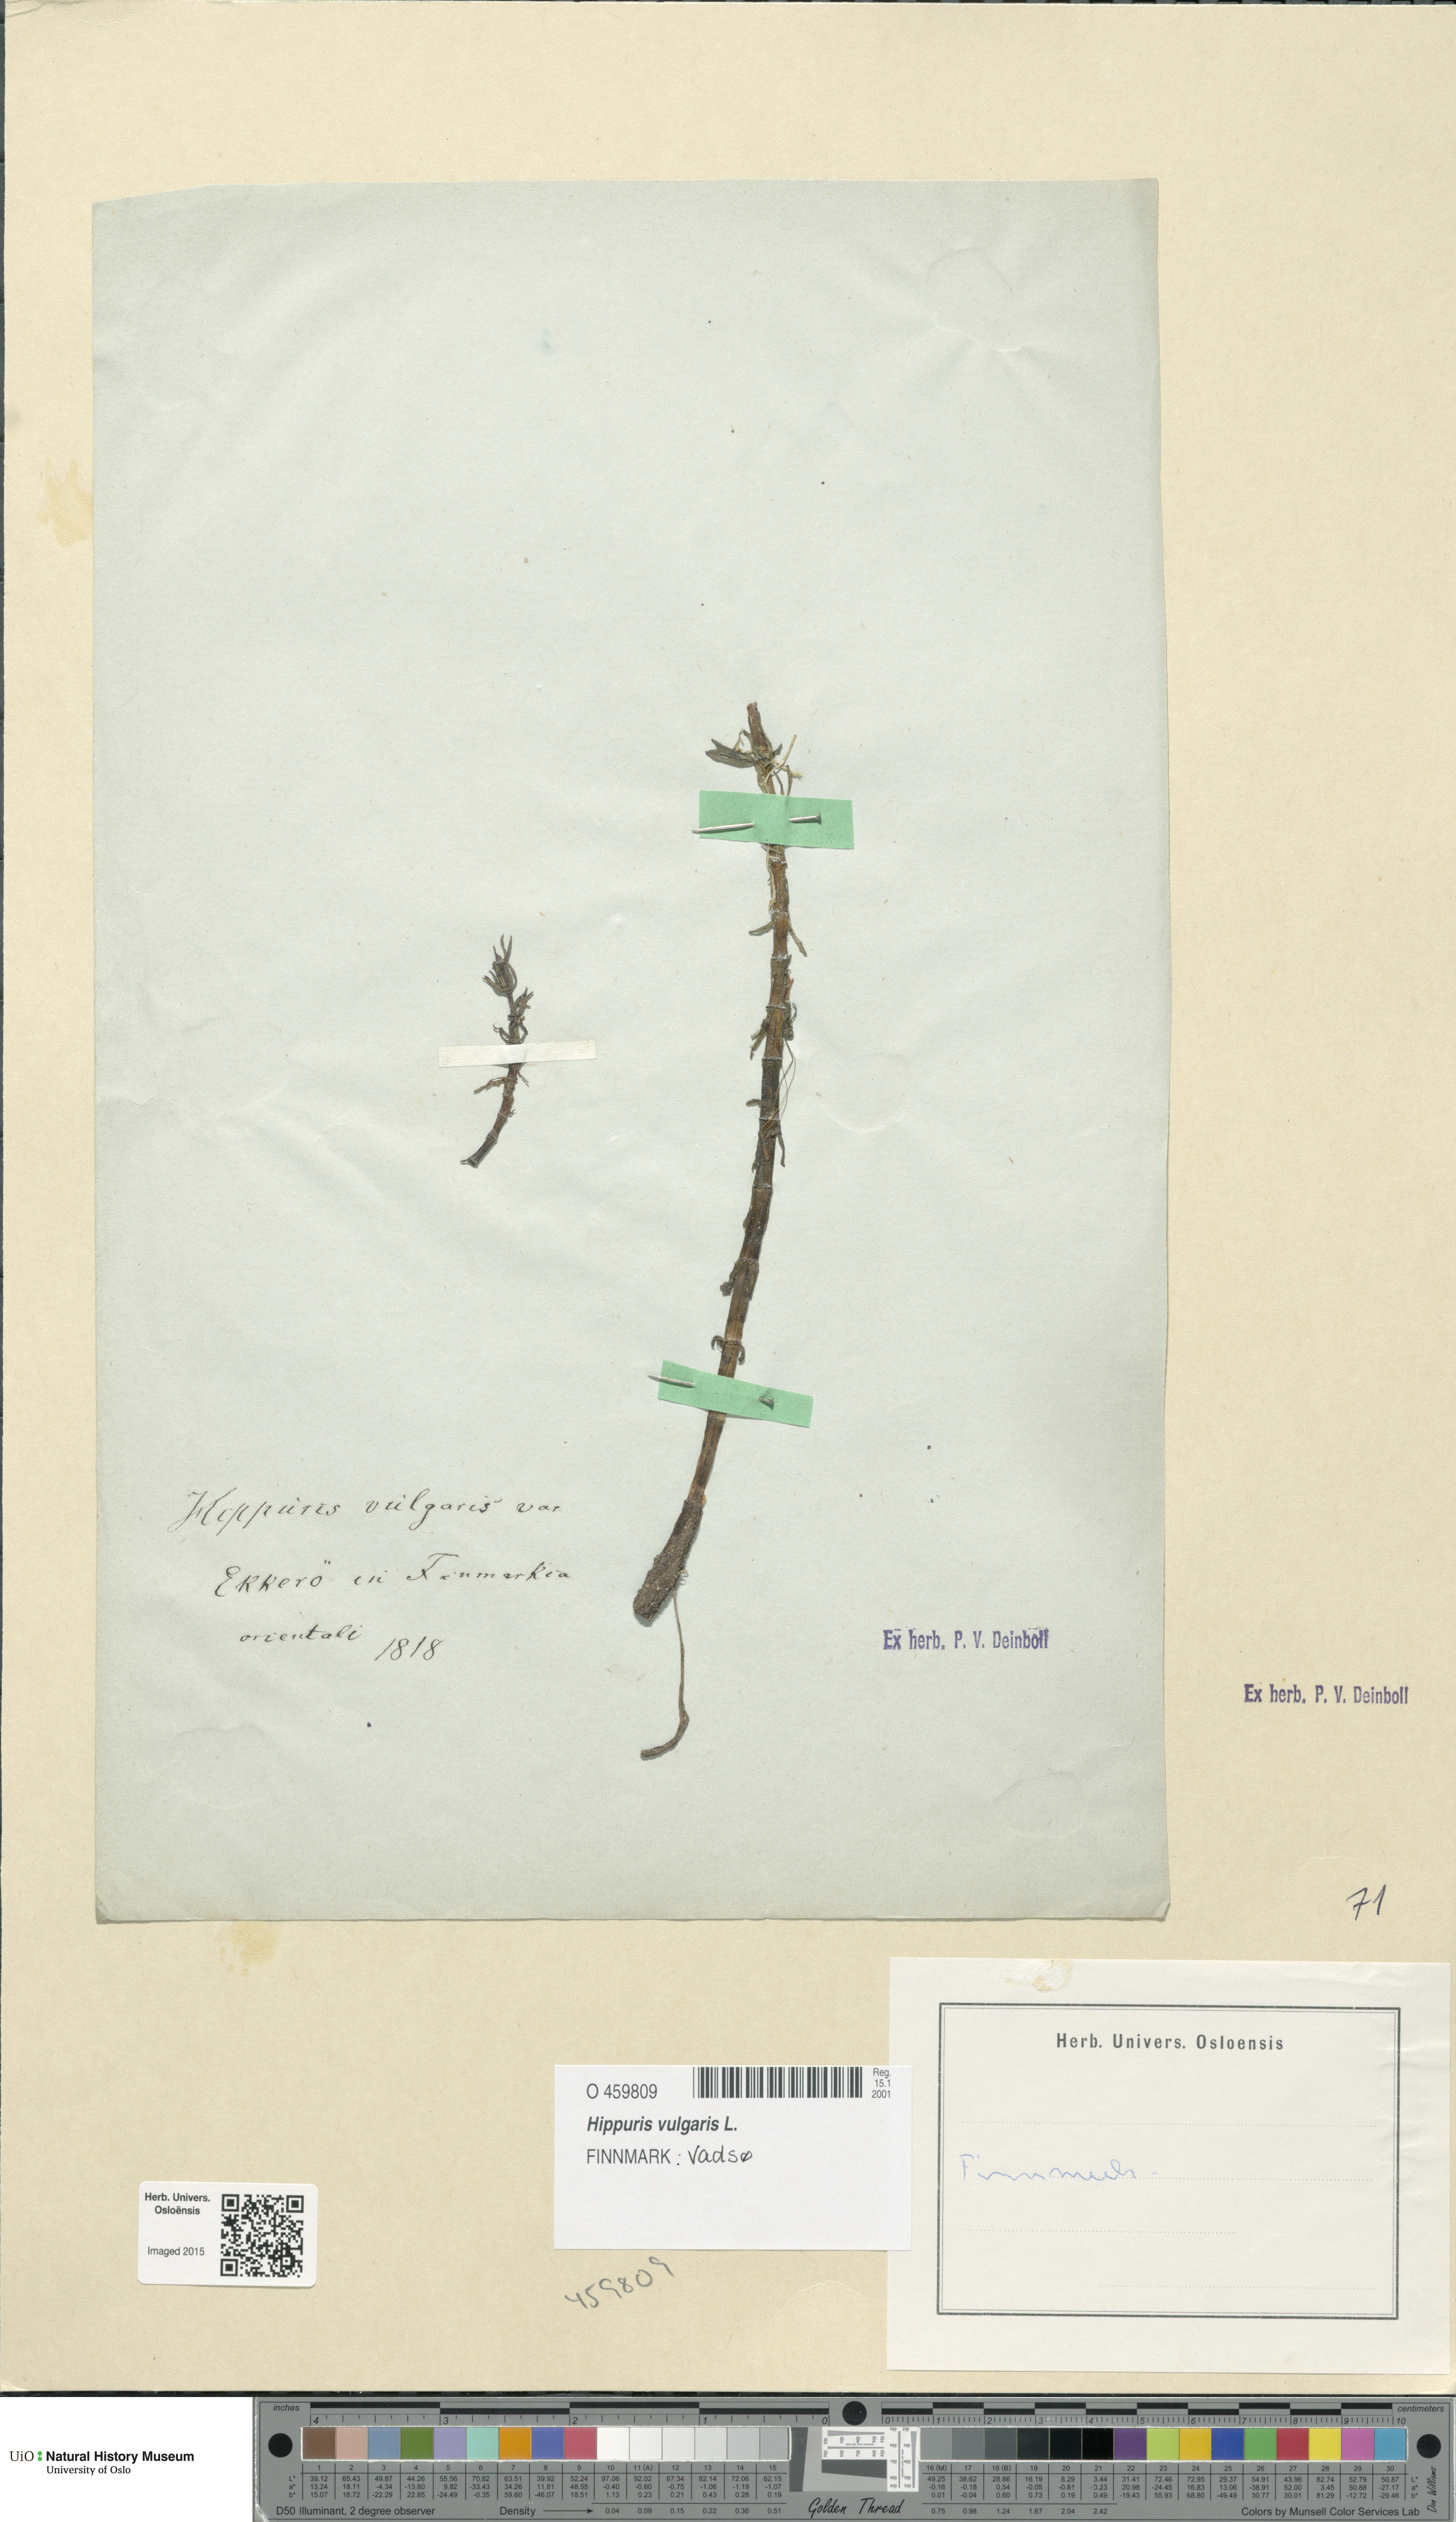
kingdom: Plantae
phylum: Tracheophyta
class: Magnoliopsida
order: Lamiales
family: Plantaginaceae
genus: Hippuris
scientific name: Hippuris vulgaris
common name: Mare's-tail
